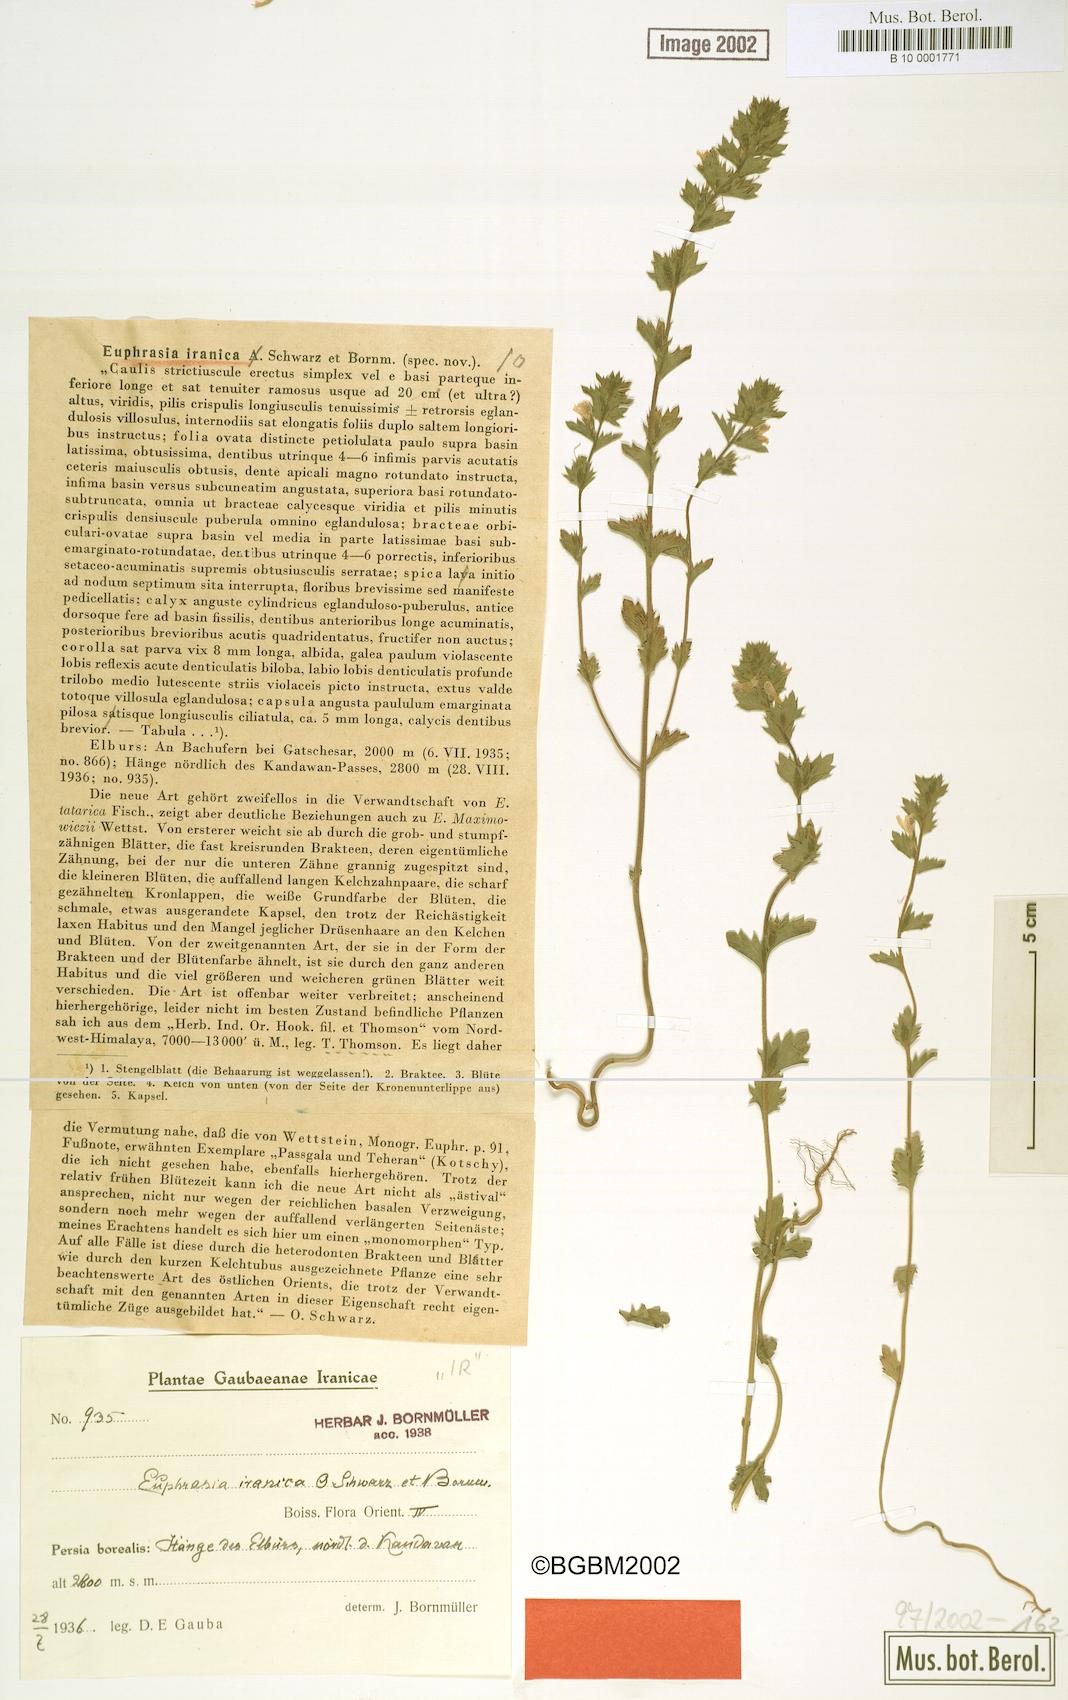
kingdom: Plantae
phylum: Tracheophyta
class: Magnoliopsida
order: Lamiales
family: Orobanchaceae
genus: Euphrasia
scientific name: Euphrasia pectinata
